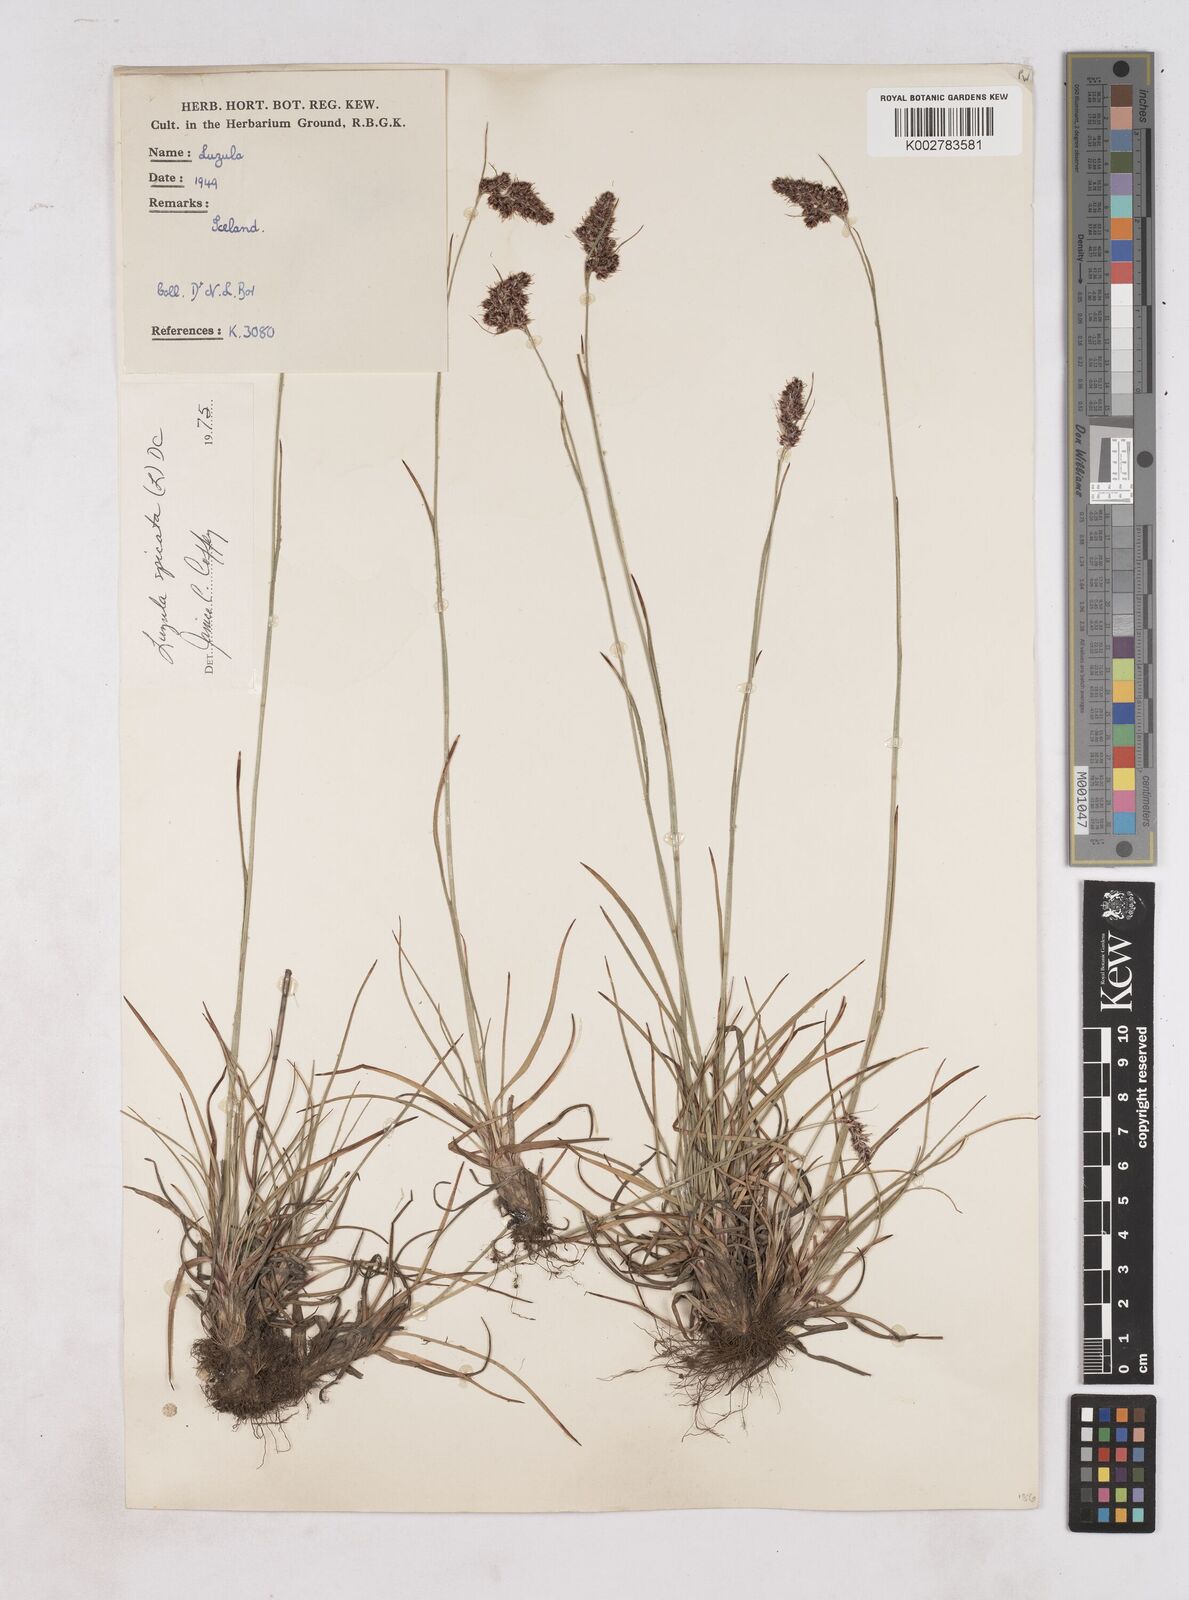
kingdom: Plantae
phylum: Tracheophyta
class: Liliopsida
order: Poales
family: Juncaceae
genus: Luzula
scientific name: Luzula
